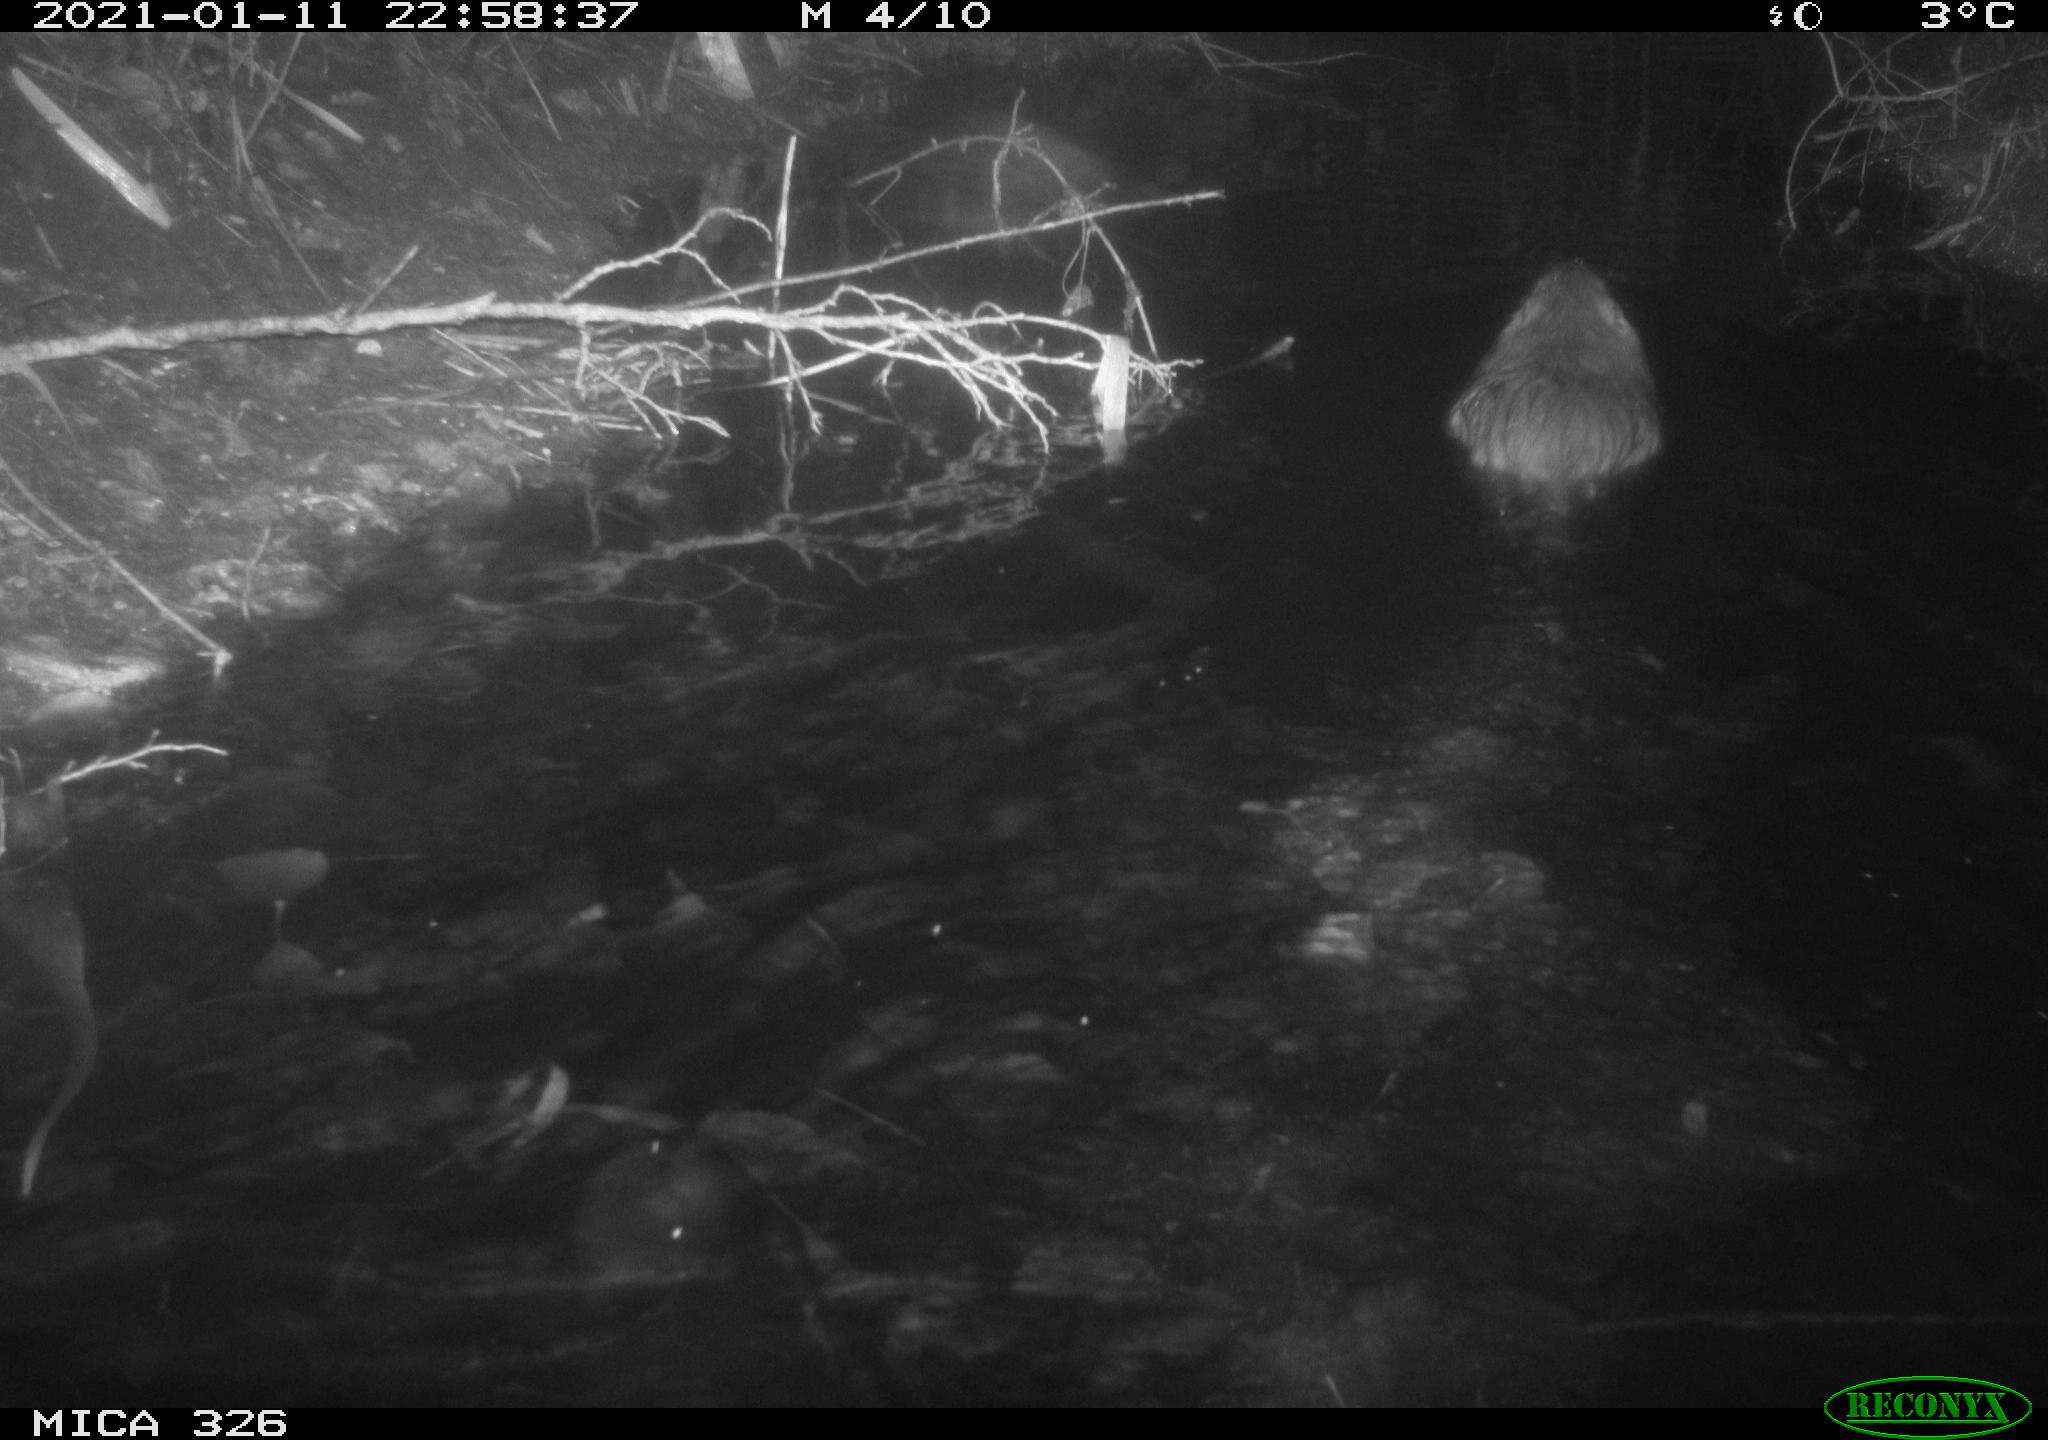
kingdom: Animalia
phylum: Chordata
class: Mammalia
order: Rodentia
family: Myocastoridae
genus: Myocastor
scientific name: Myocastor coypus
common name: Coypu
